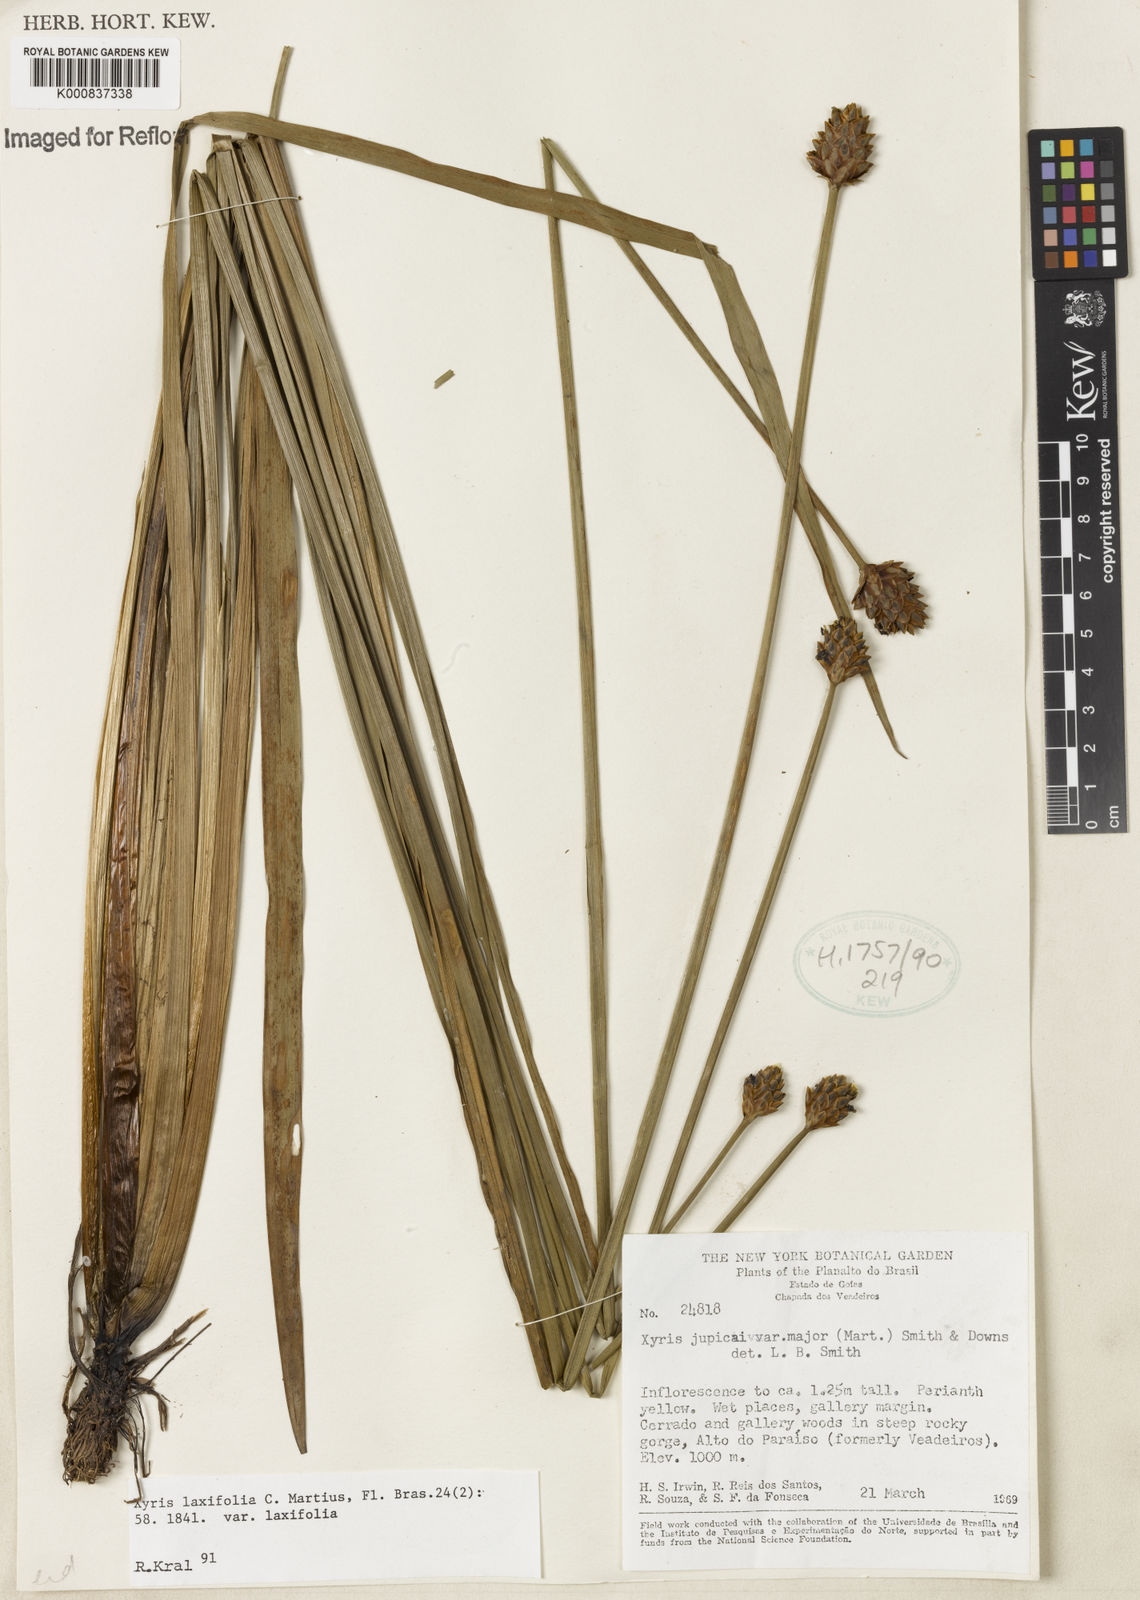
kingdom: Plantae
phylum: Tracheophyta
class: Liliopsida
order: Poales
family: Xyridaceae
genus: Xyris
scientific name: Xyris laxifolia
